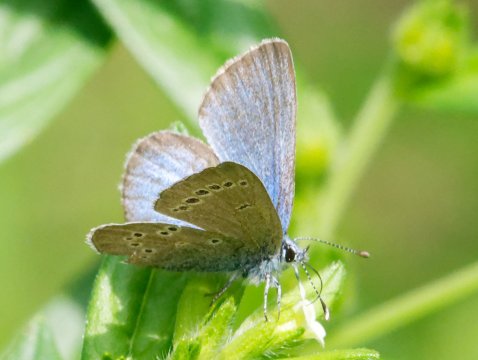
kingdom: Animalia
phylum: Arthropoda
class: Insecta
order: Lepidoptera
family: Lycaenidae
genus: Glaucopsyche
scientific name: Glaucopsyche lygdamus
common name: Silvery Blue
